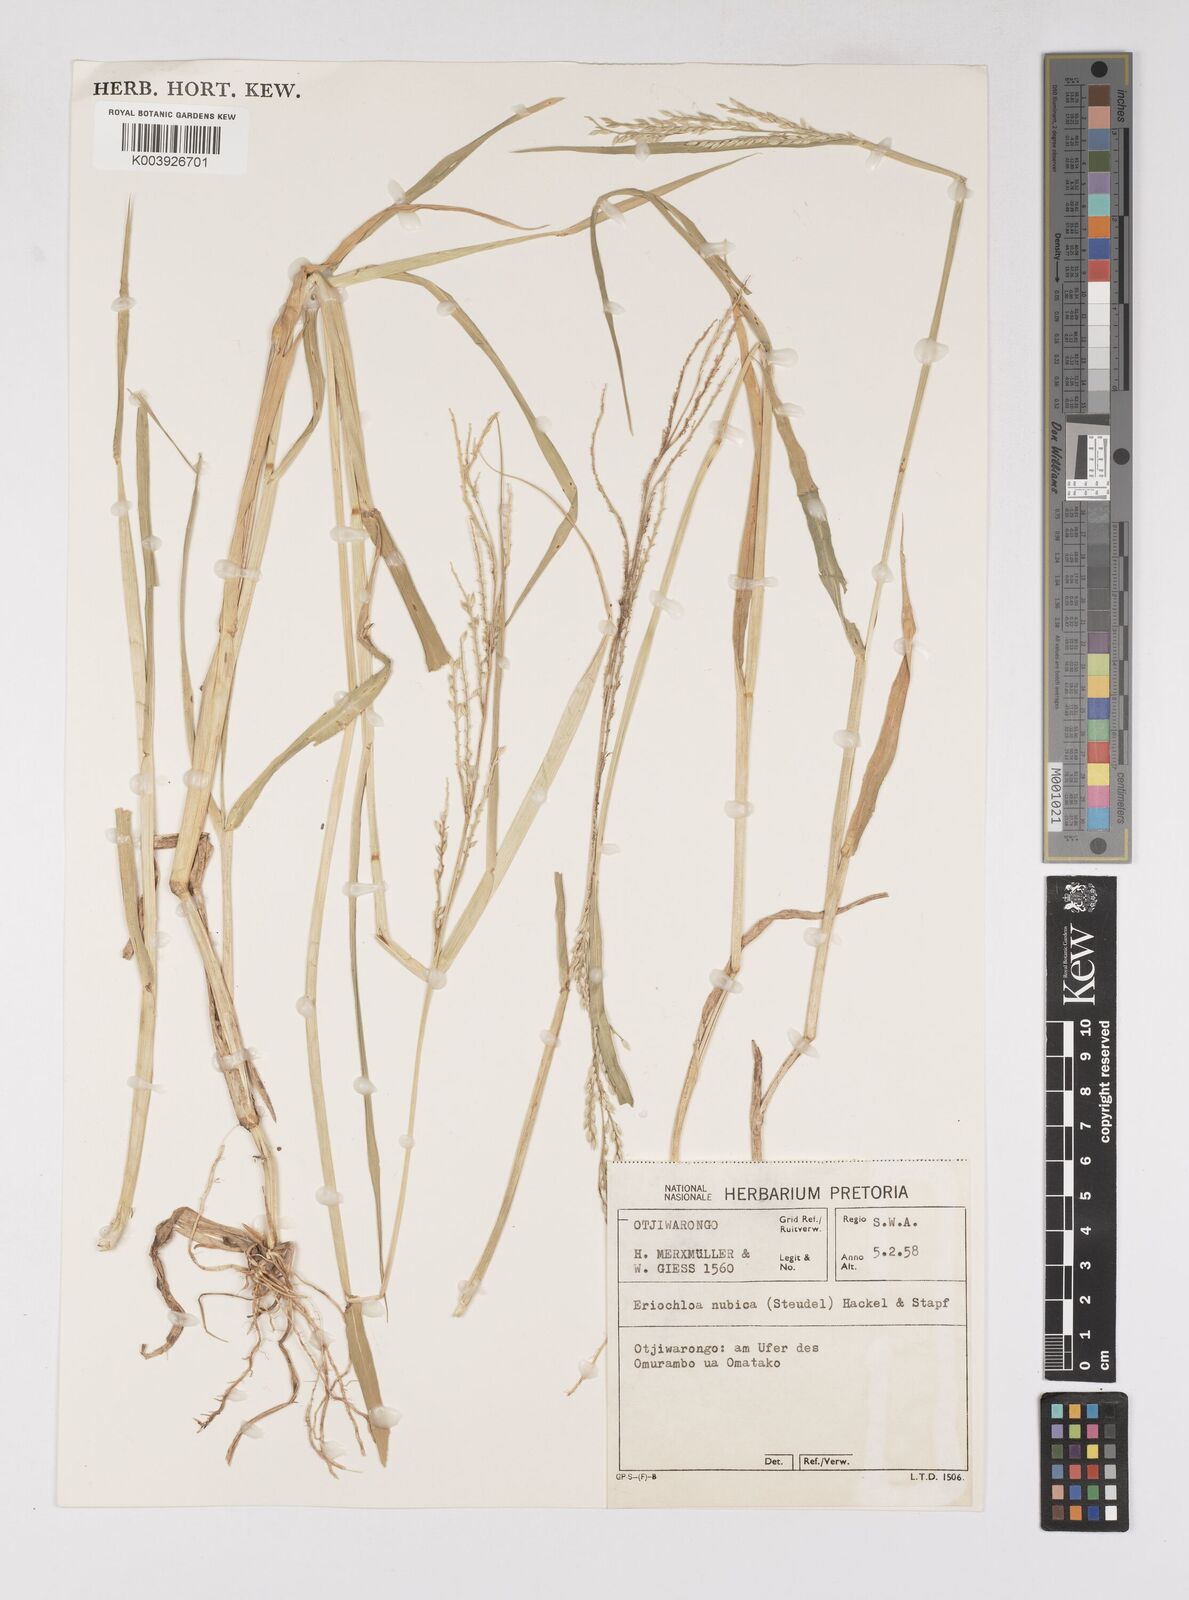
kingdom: Plantae
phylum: Tracheophyta
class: Liliopsida
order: Poales
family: Poaceae
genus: Eriochloa
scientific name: Eriochloa barbatus
